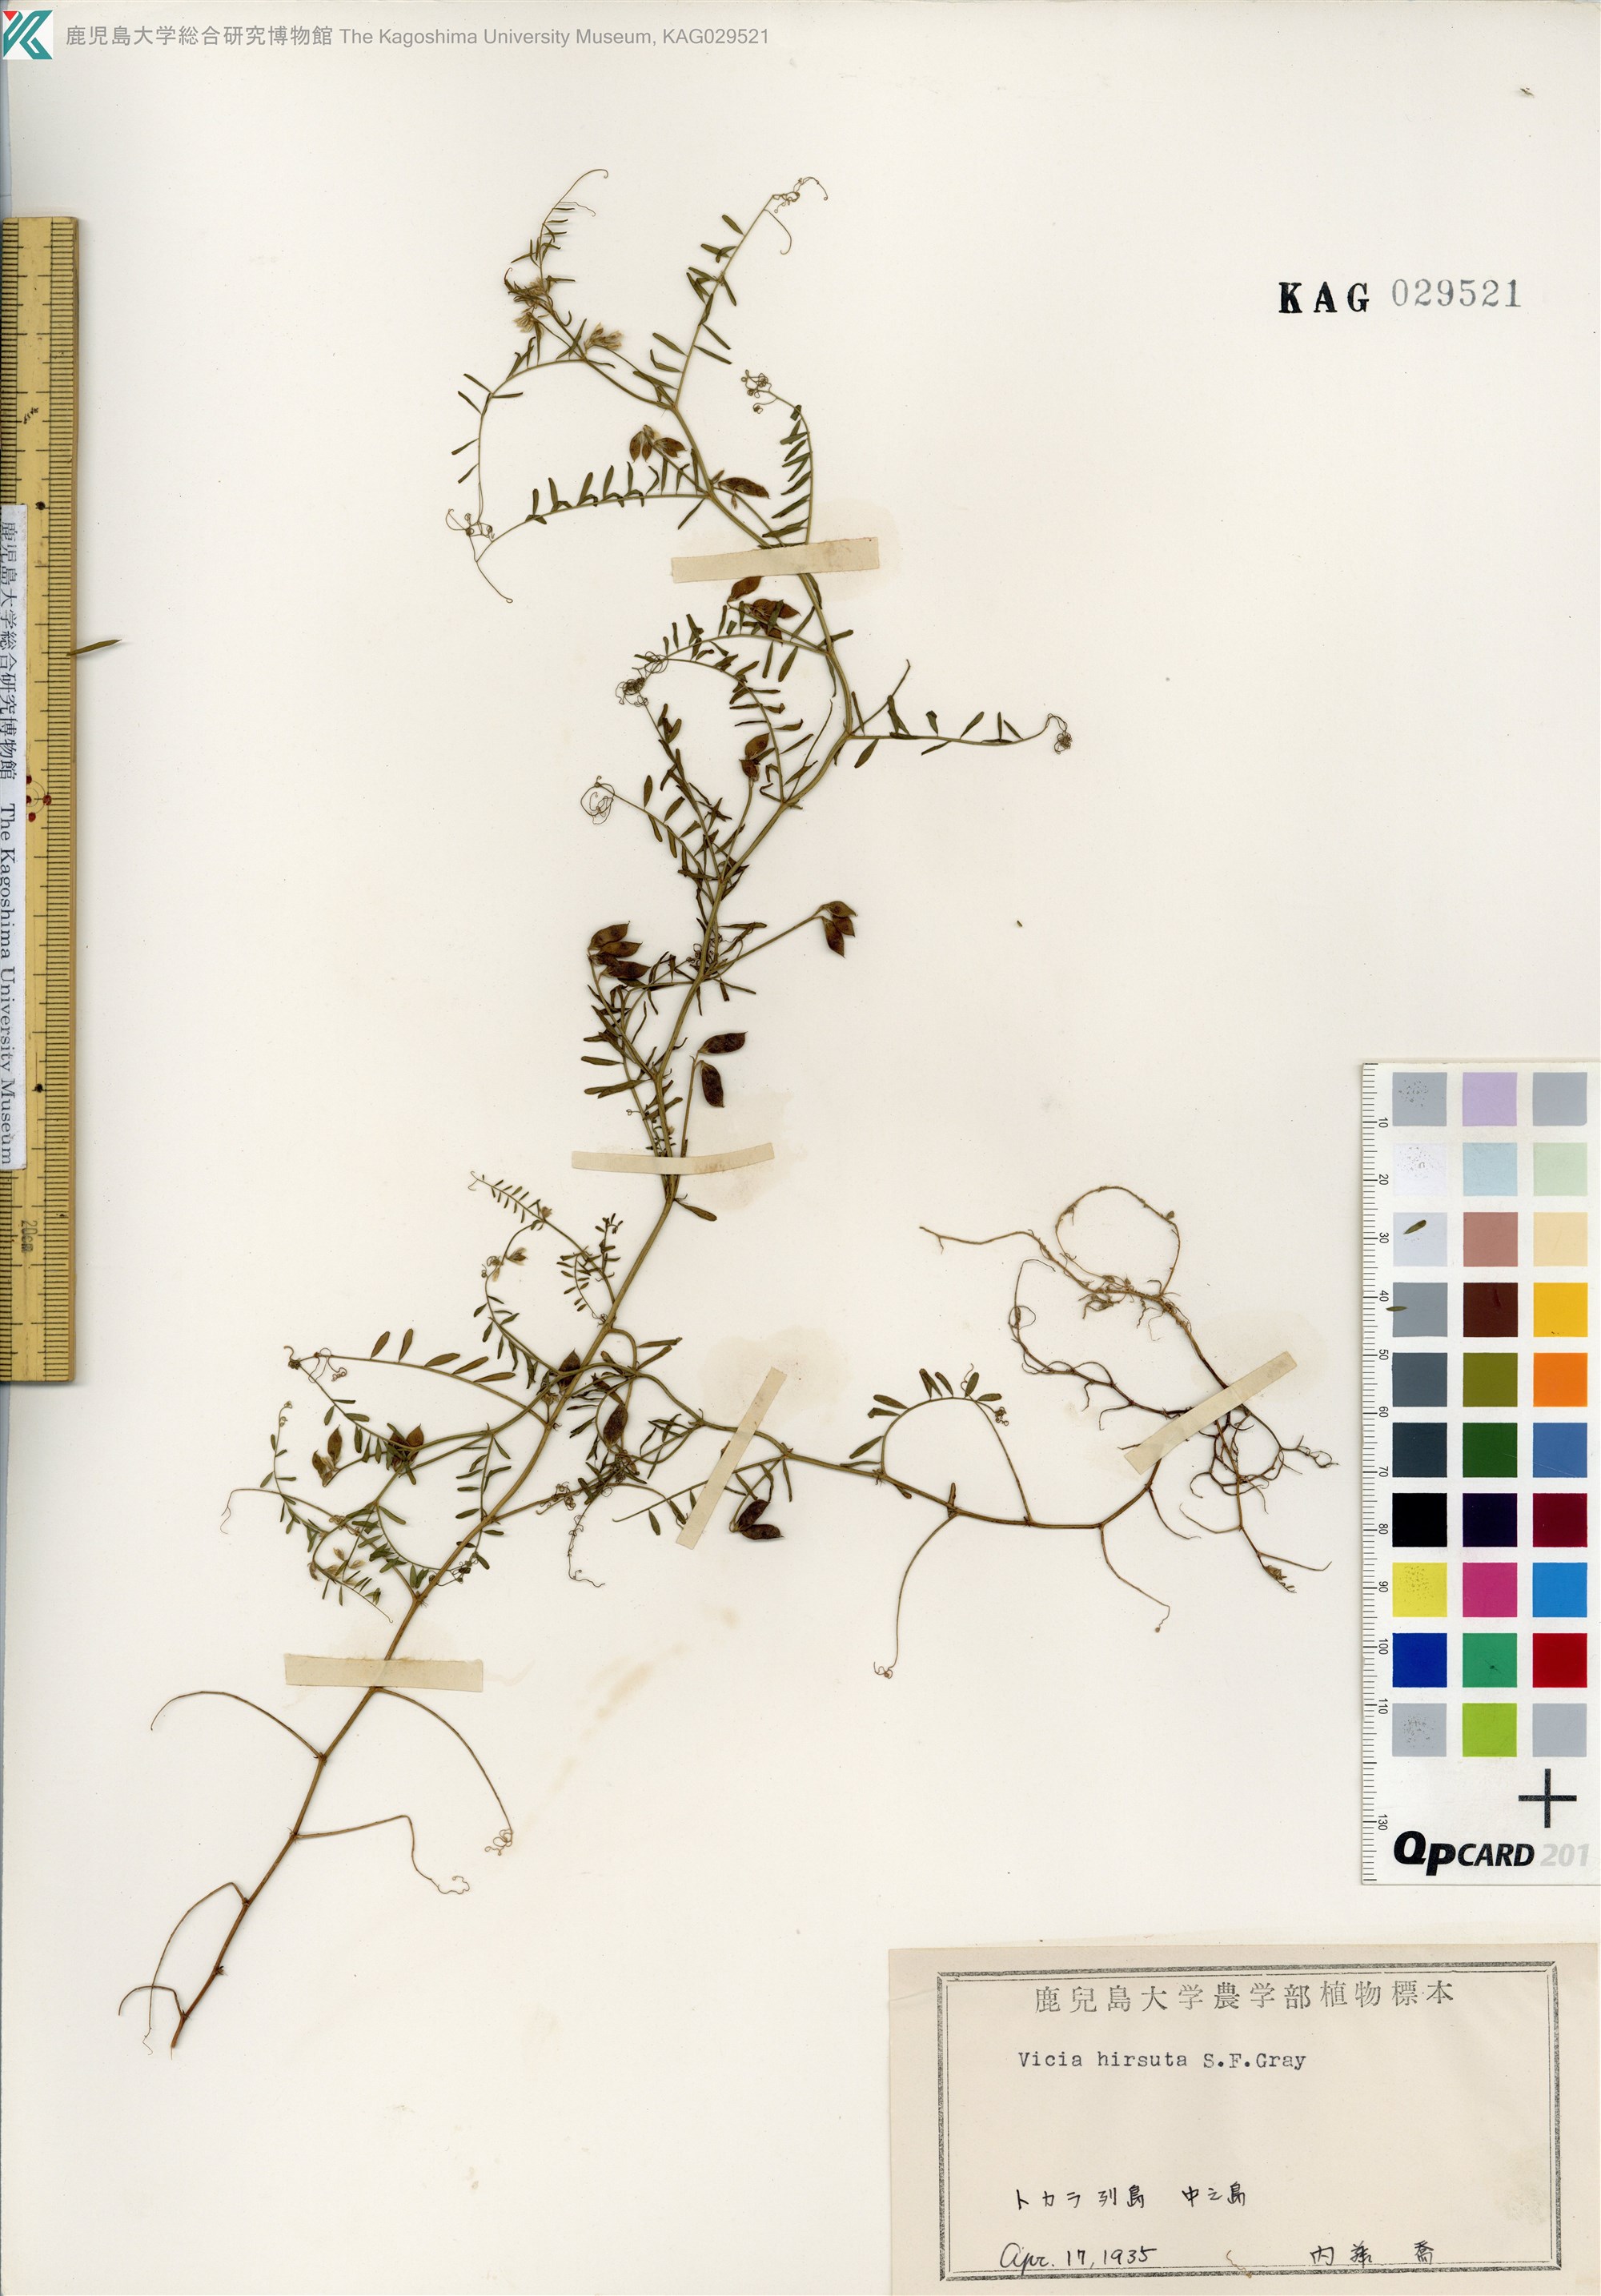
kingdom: Plantae
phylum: Tracheophyta
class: Magnoliopsida
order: Fabales
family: Fabaceae
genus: Vicia
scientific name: Vicia hirsuta
